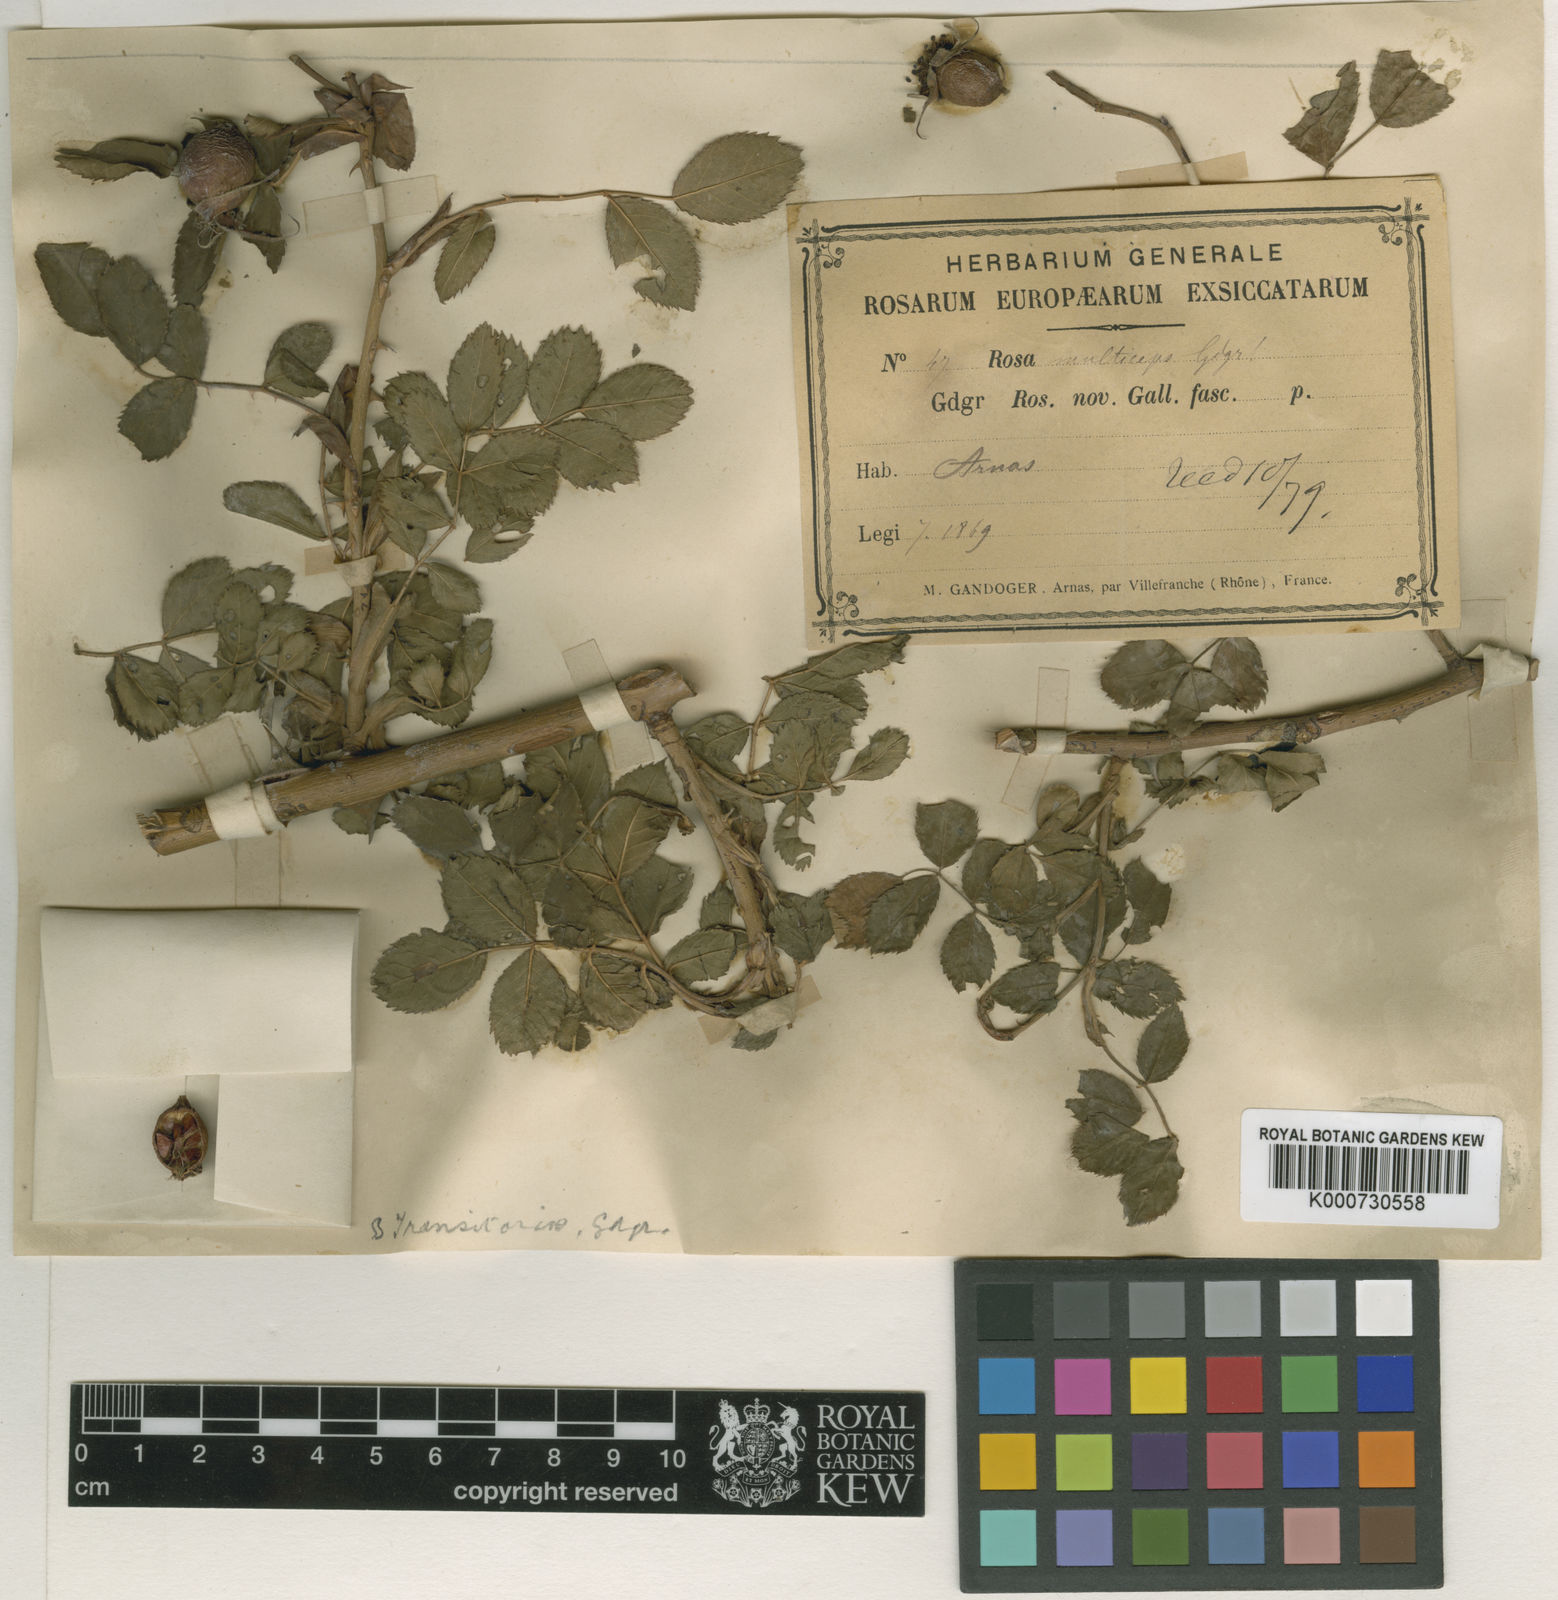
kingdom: Plantae
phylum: Tracheophyta
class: Magnoliopsida
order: Rosales
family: Rosaceae
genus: Rosa
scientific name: Rosa
